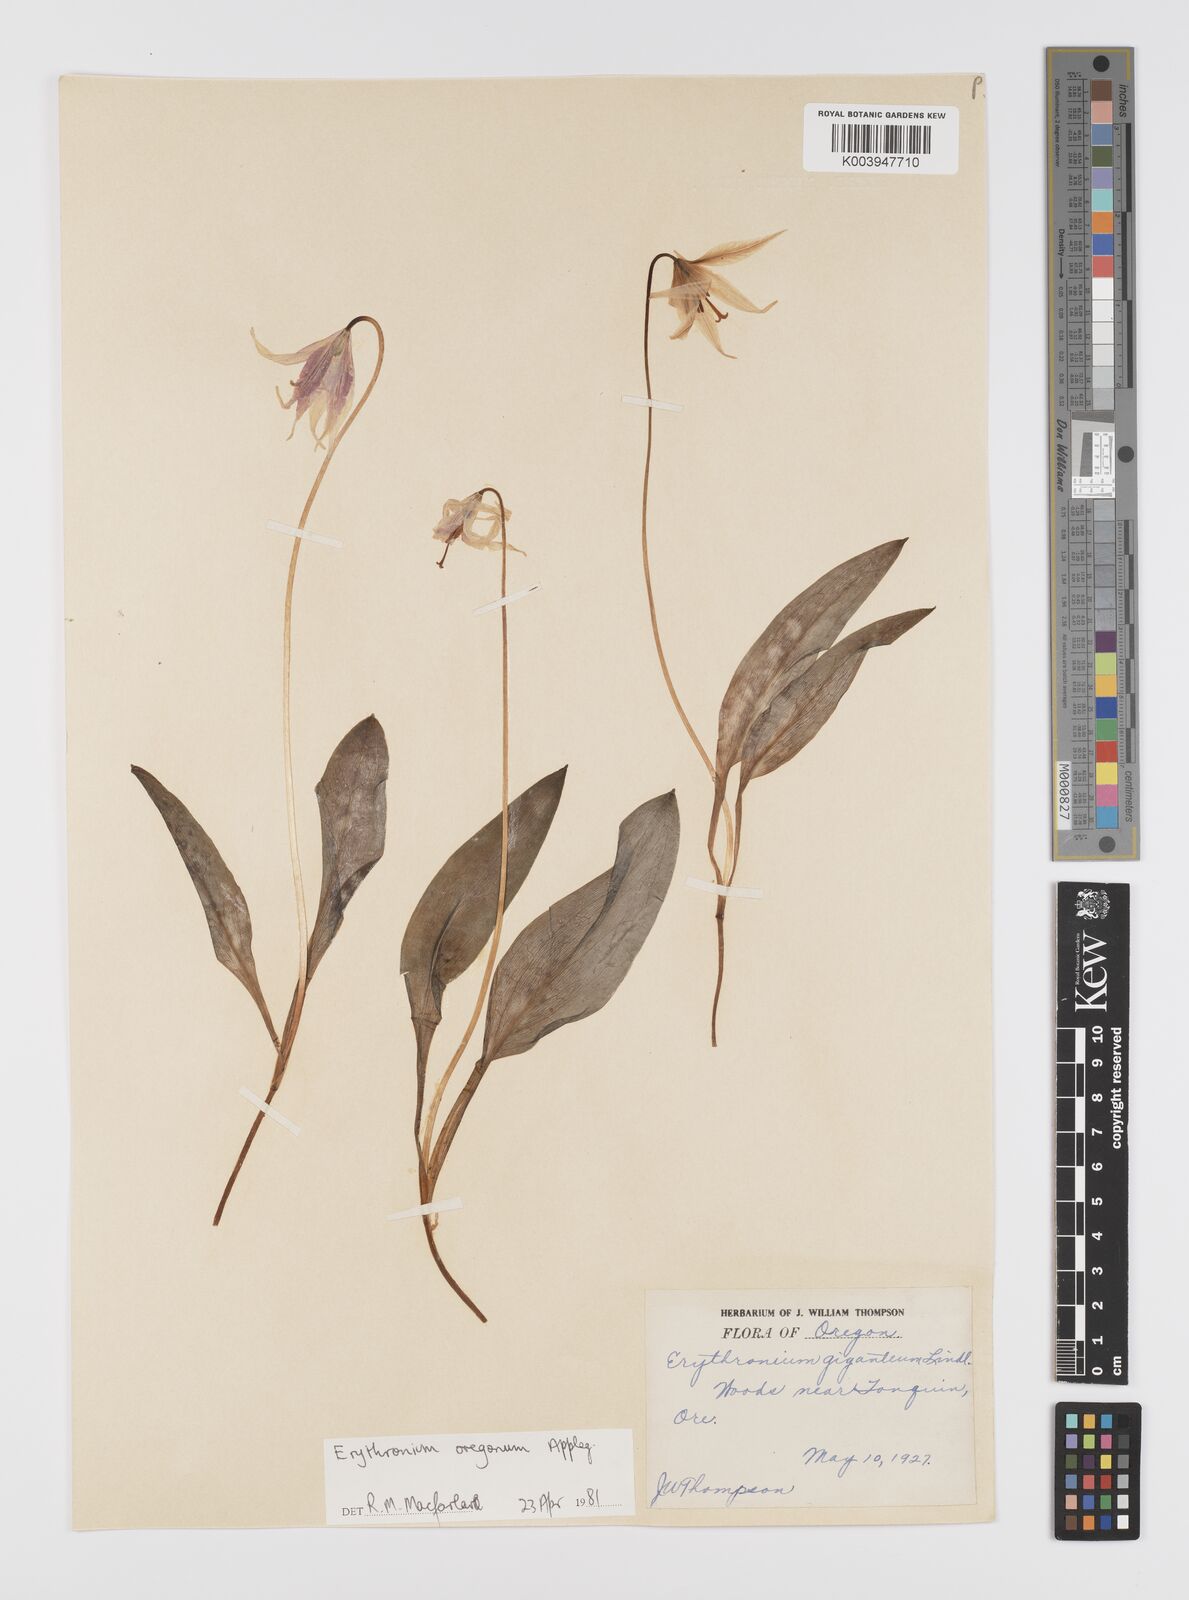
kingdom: Plantae
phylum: Tracheophyta
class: Liliopsida
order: Liliales
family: Liliaceae
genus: Erythronium
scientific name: Erythronium oregonum
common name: Giant adder's-tongue
